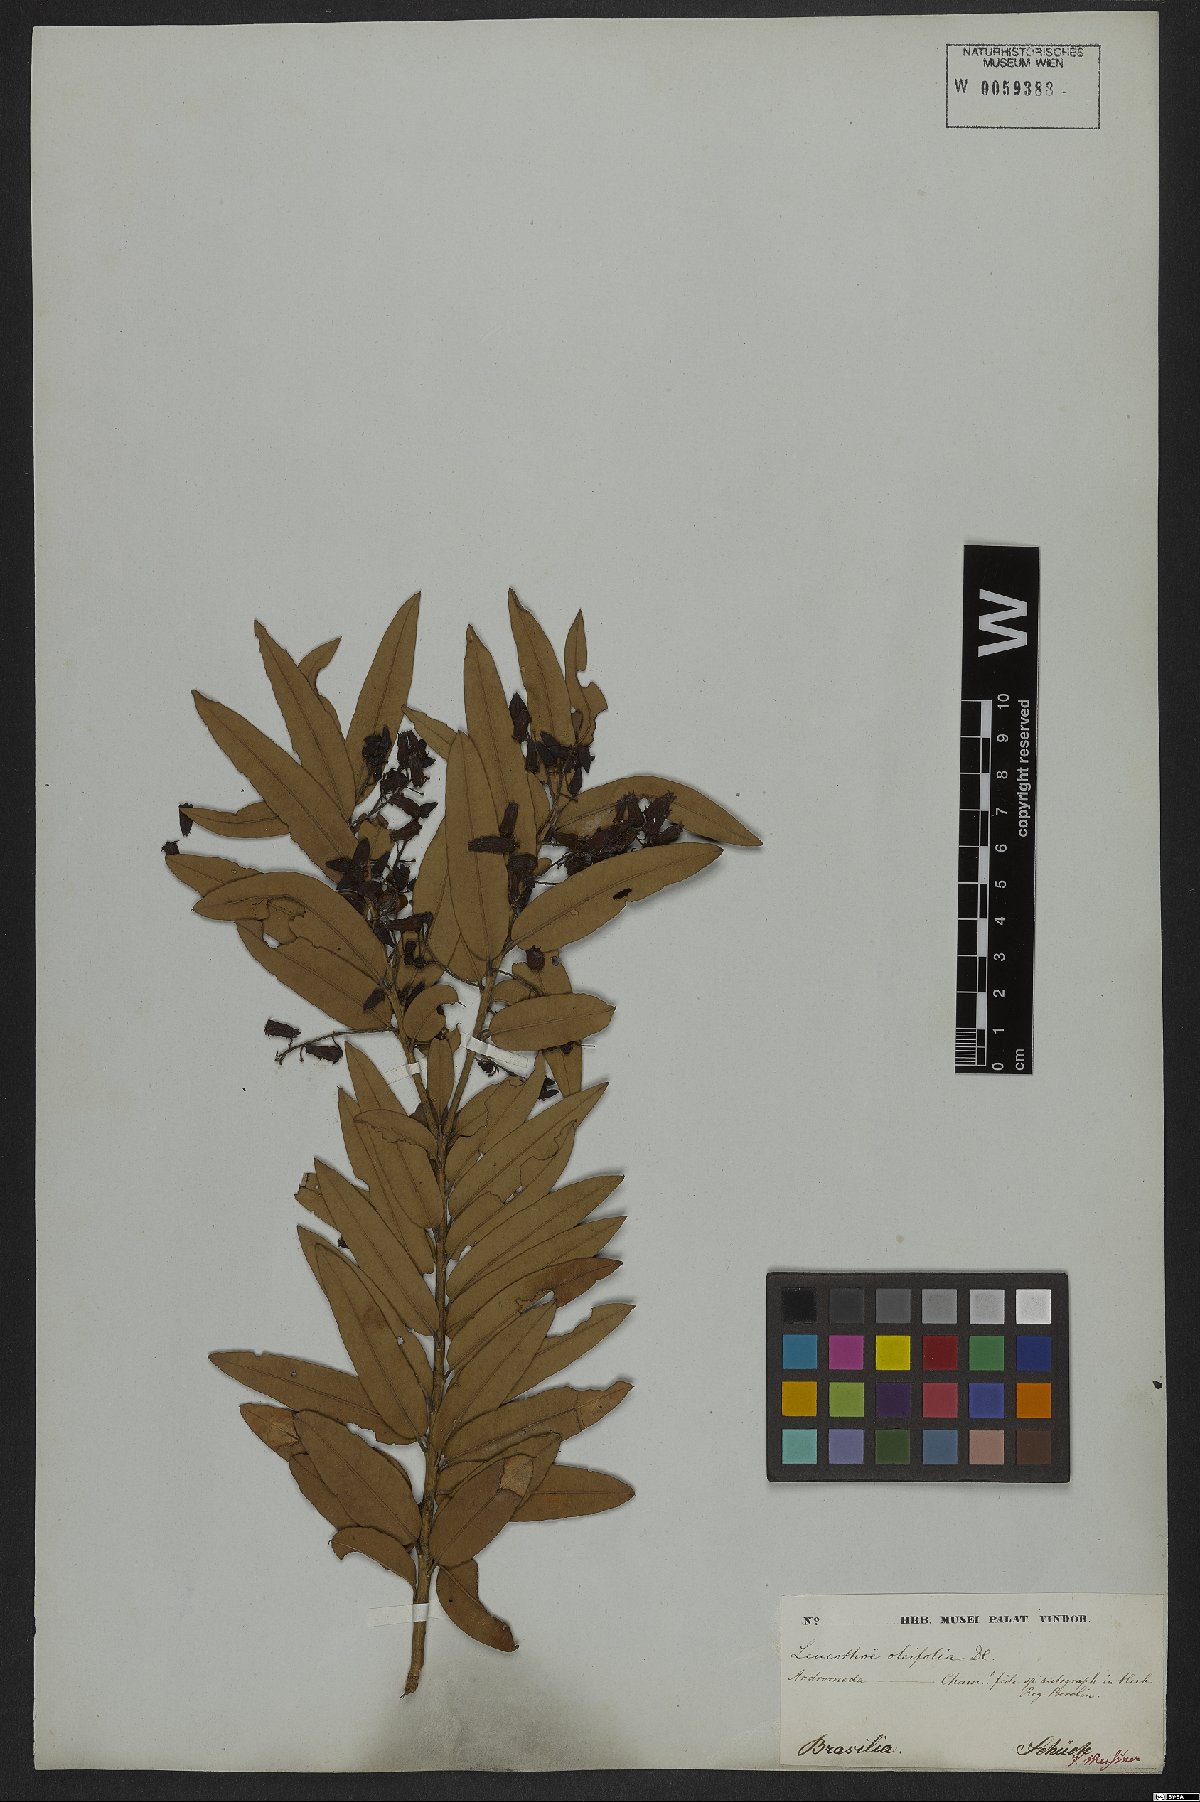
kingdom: Plantae
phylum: Tracheophyta
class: Magnoliopsida
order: Ericales
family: Ericaceae
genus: Agarista
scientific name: Agarista oleifolia
